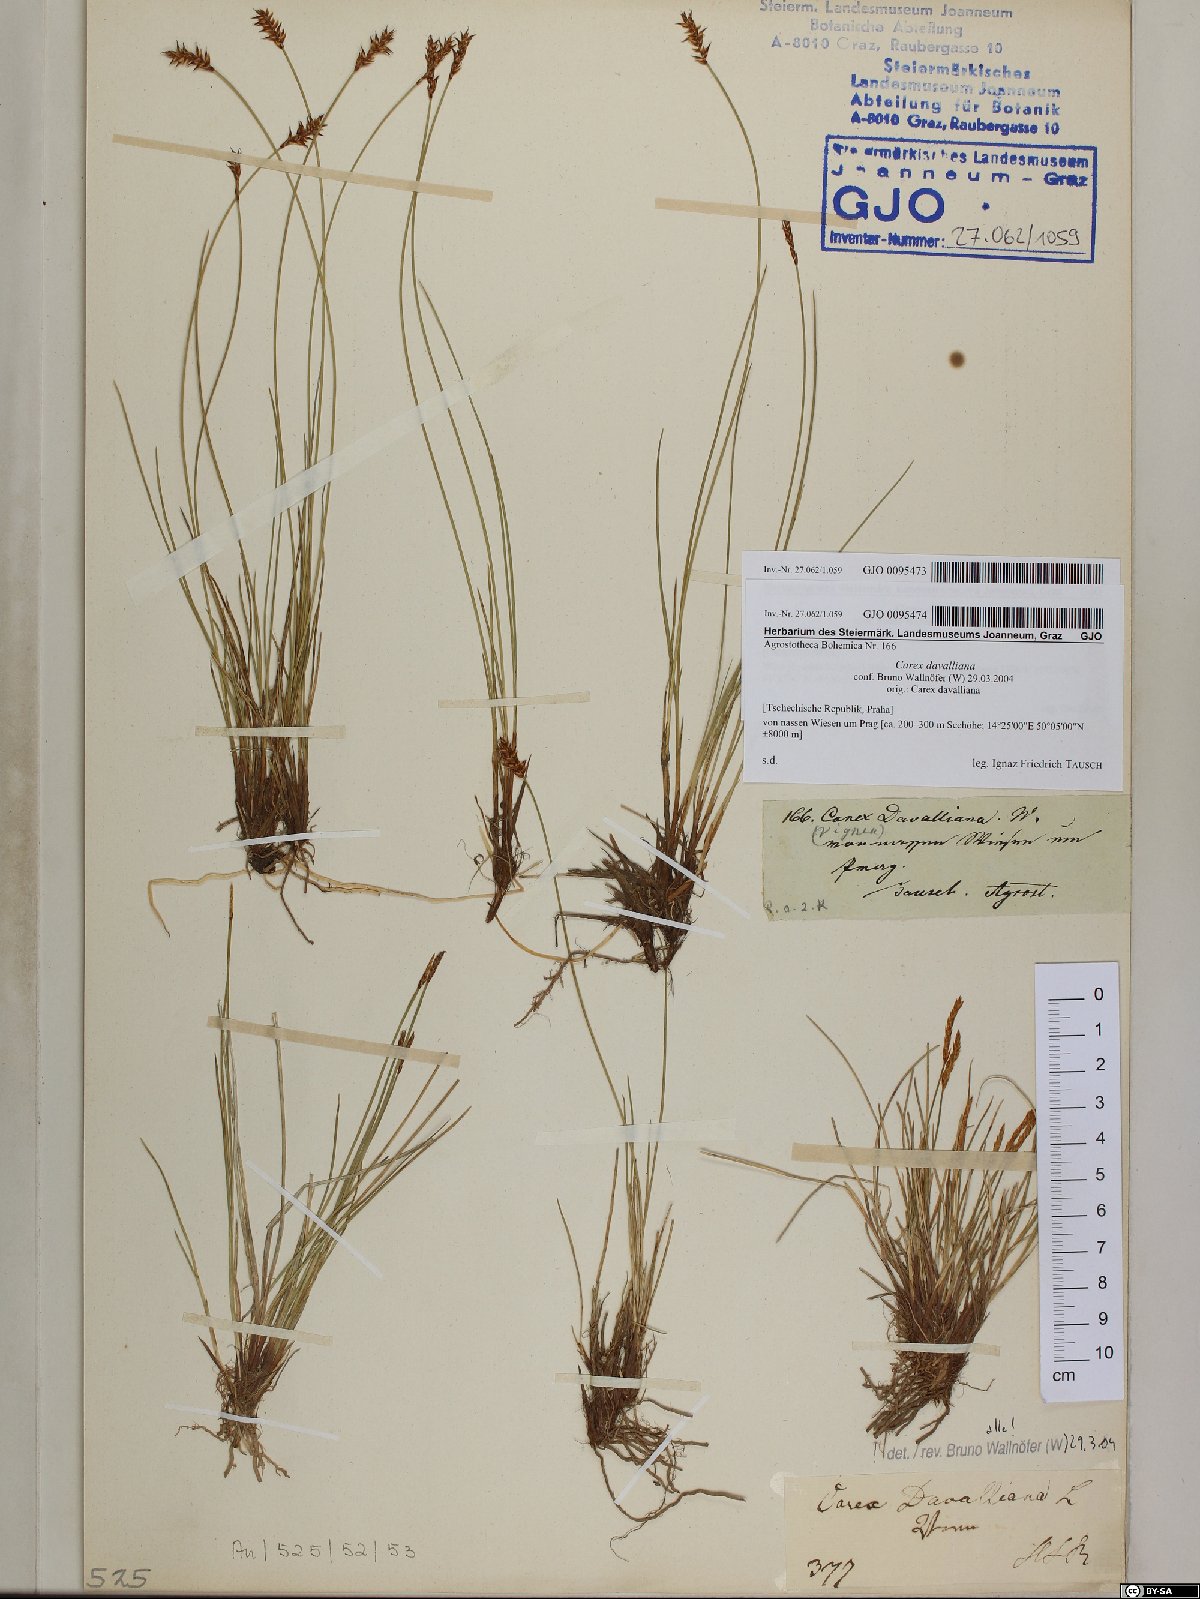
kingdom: Plantae
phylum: Tracheophyta
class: Liliopsida
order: Poales
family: Cyperaceae
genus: Carex
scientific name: Carex davalliana
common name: Davall's sedge
